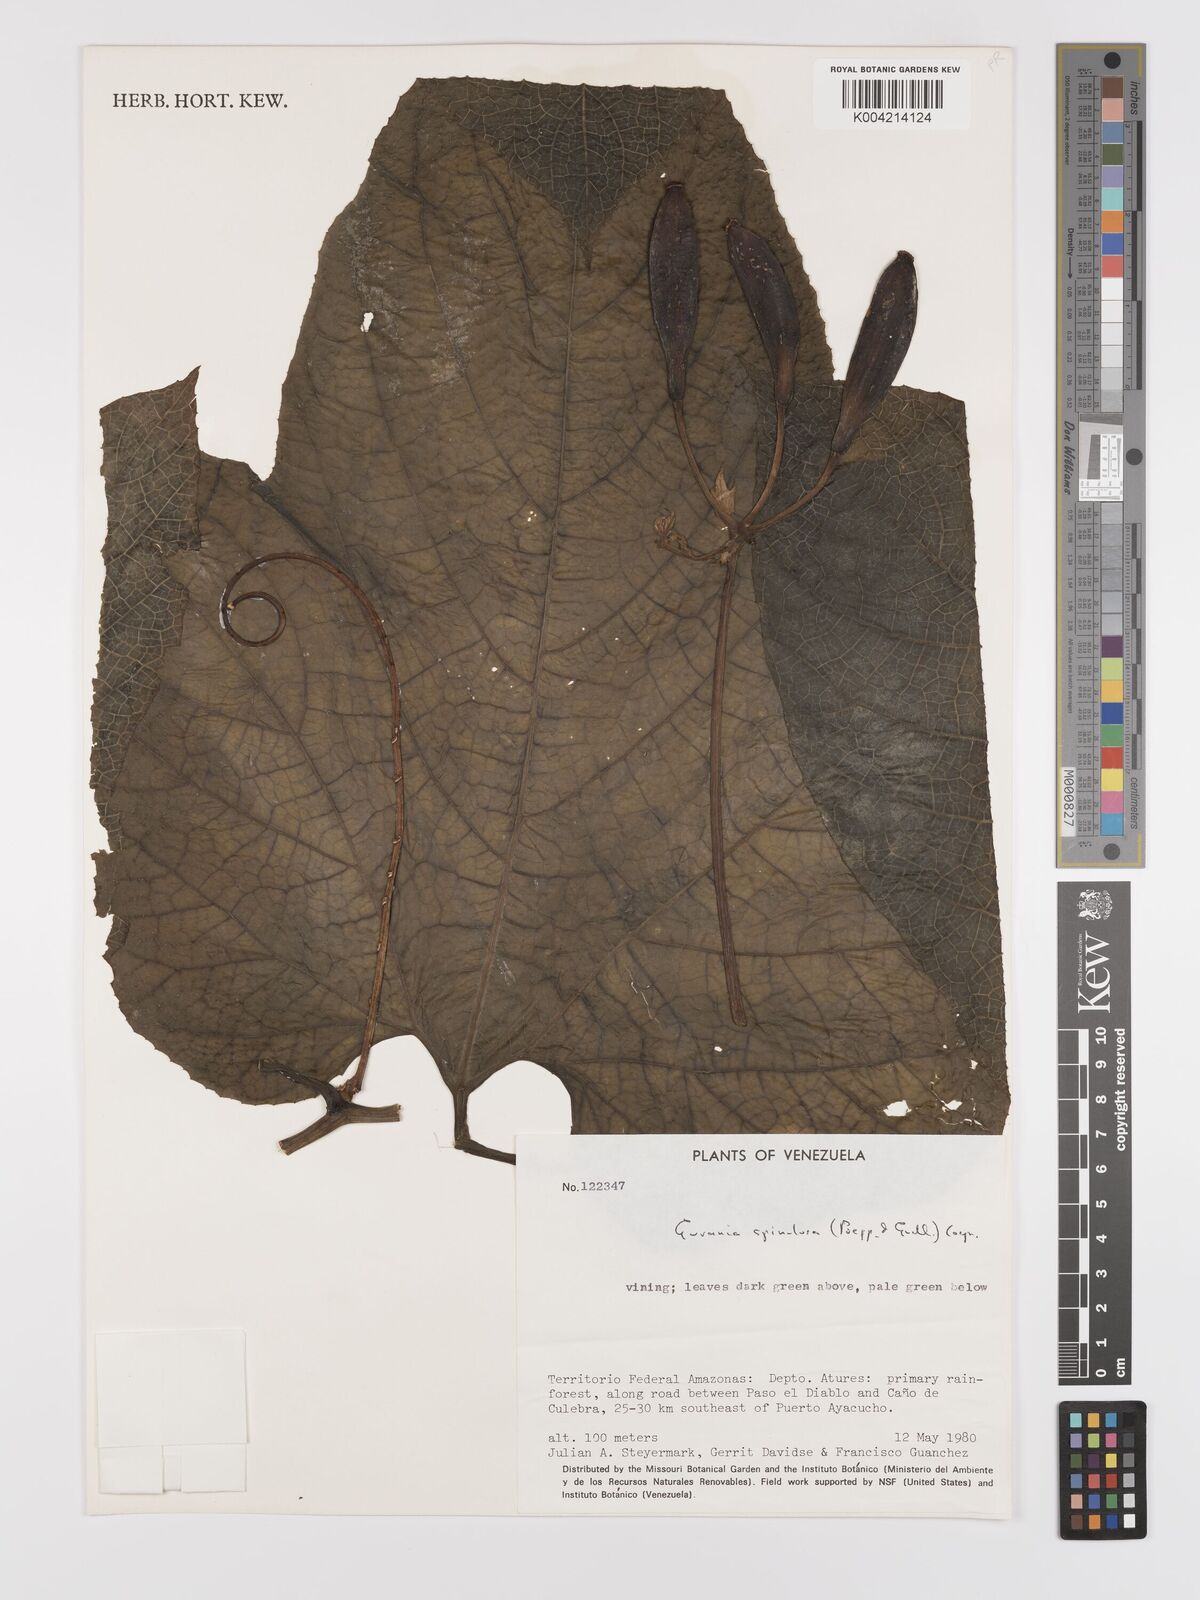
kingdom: Plantae
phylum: Tracheophyta
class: Magnoliopsida
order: Cucurbitales
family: Cucurbitaceae
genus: Gurania
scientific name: Gurania lobata
